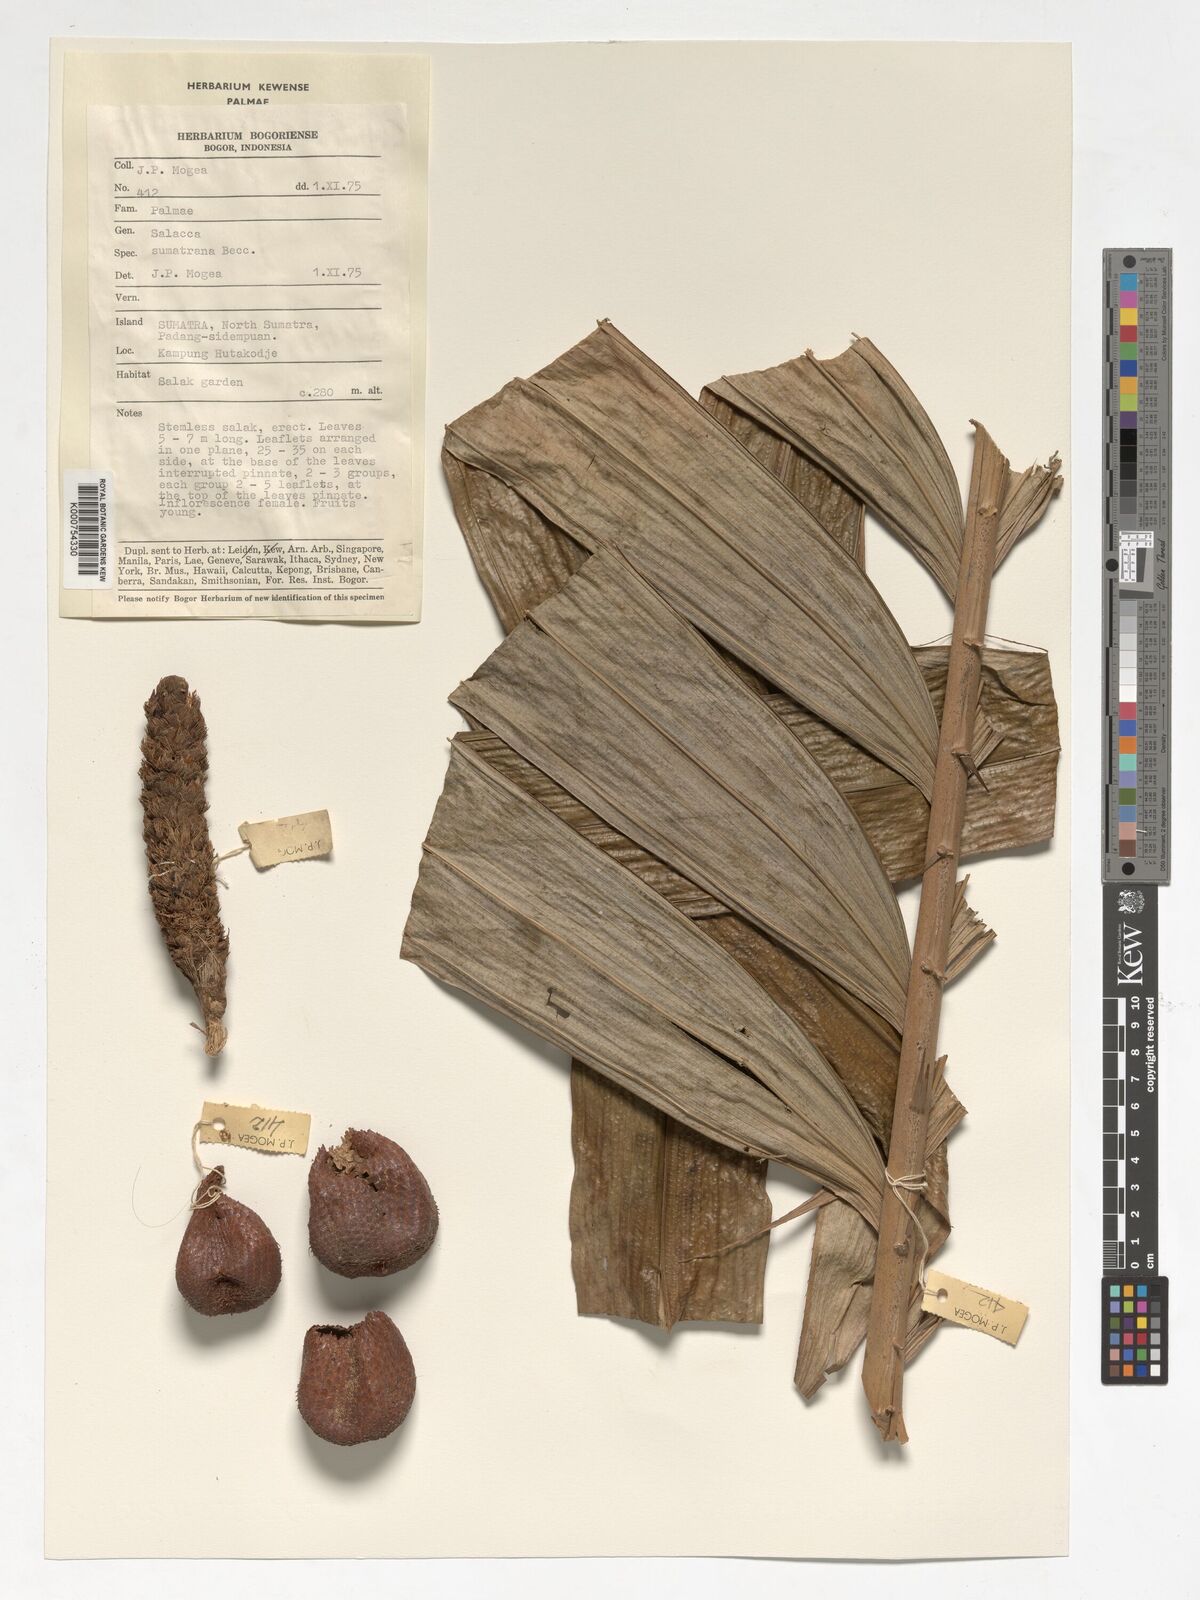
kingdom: Plantae
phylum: Tracheophyta
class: Liliopsida
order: Arecales
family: Arecaceae
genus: Salacca
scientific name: Salacca sumatrana
